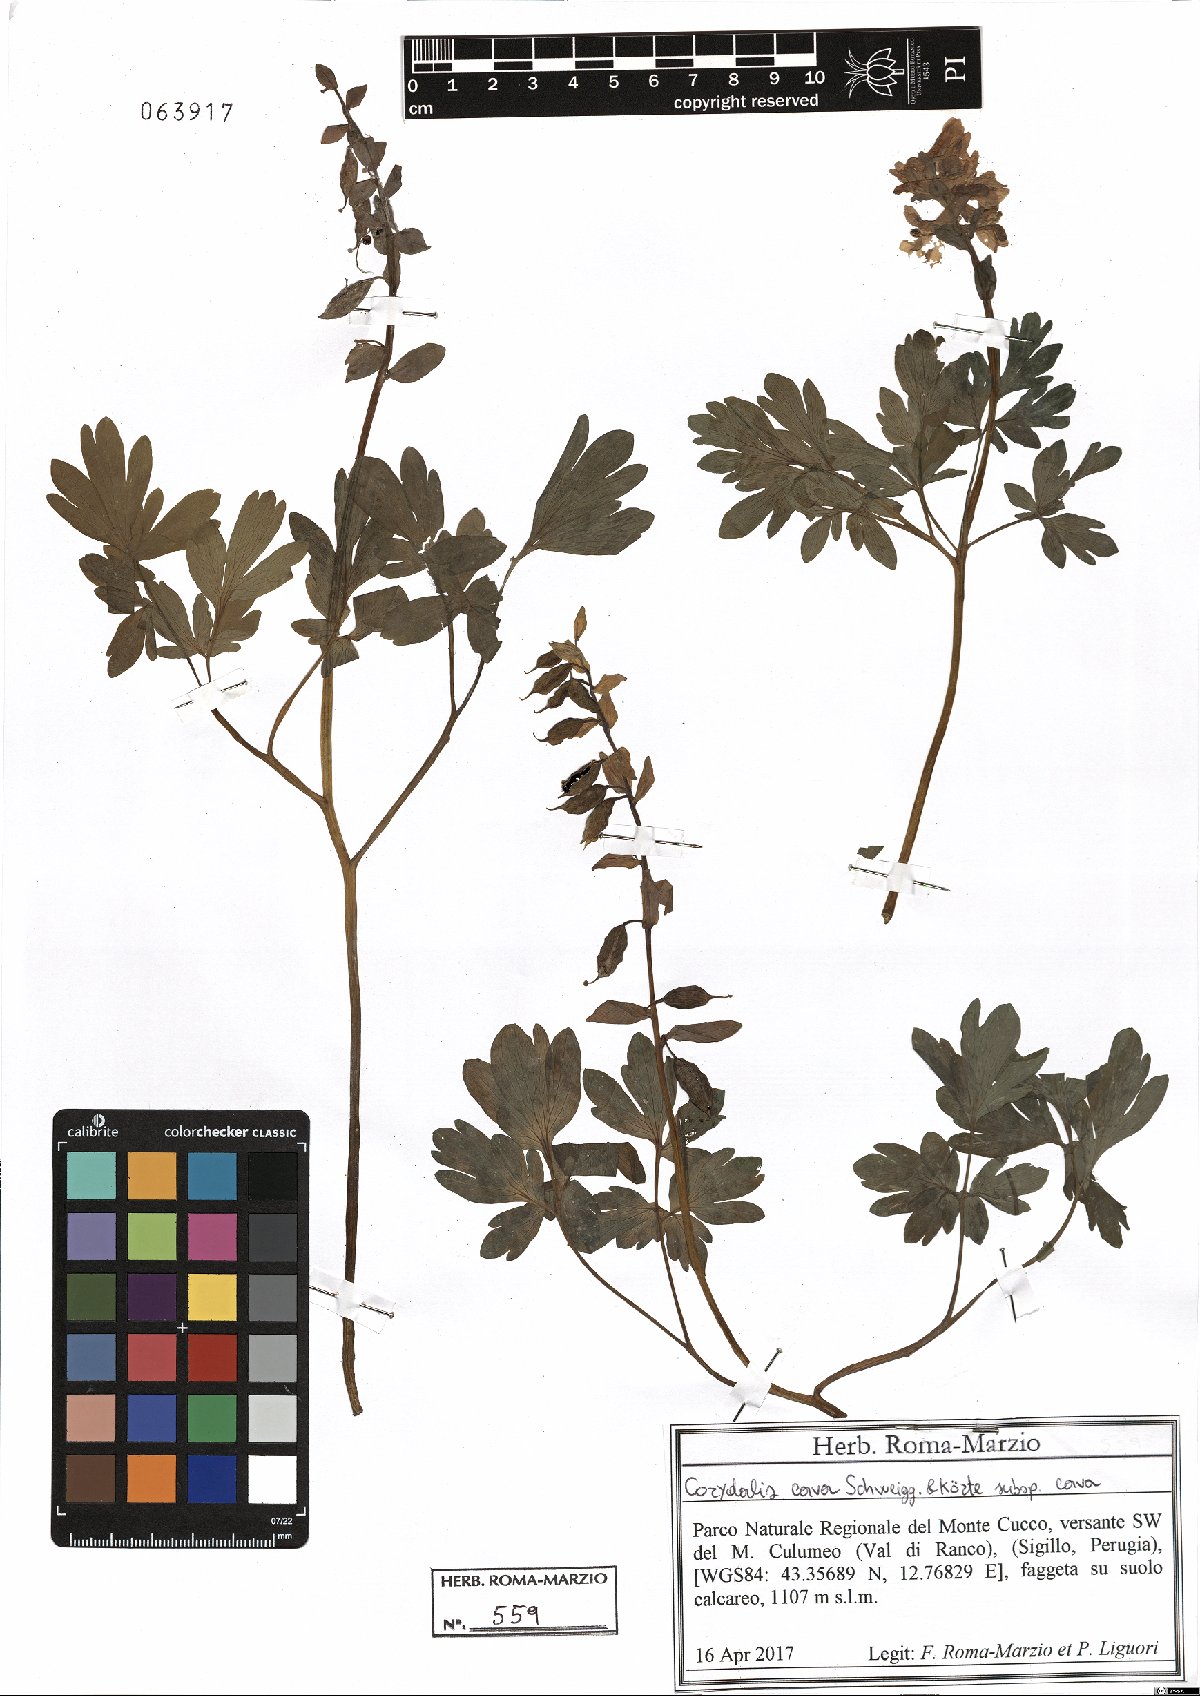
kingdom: Plantae
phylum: Tracheophyta
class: Magnoliopsida
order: Ranunculales
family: Papaveraceae
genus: Corydalis
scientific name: Corydalis cava
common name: Hollowroot
